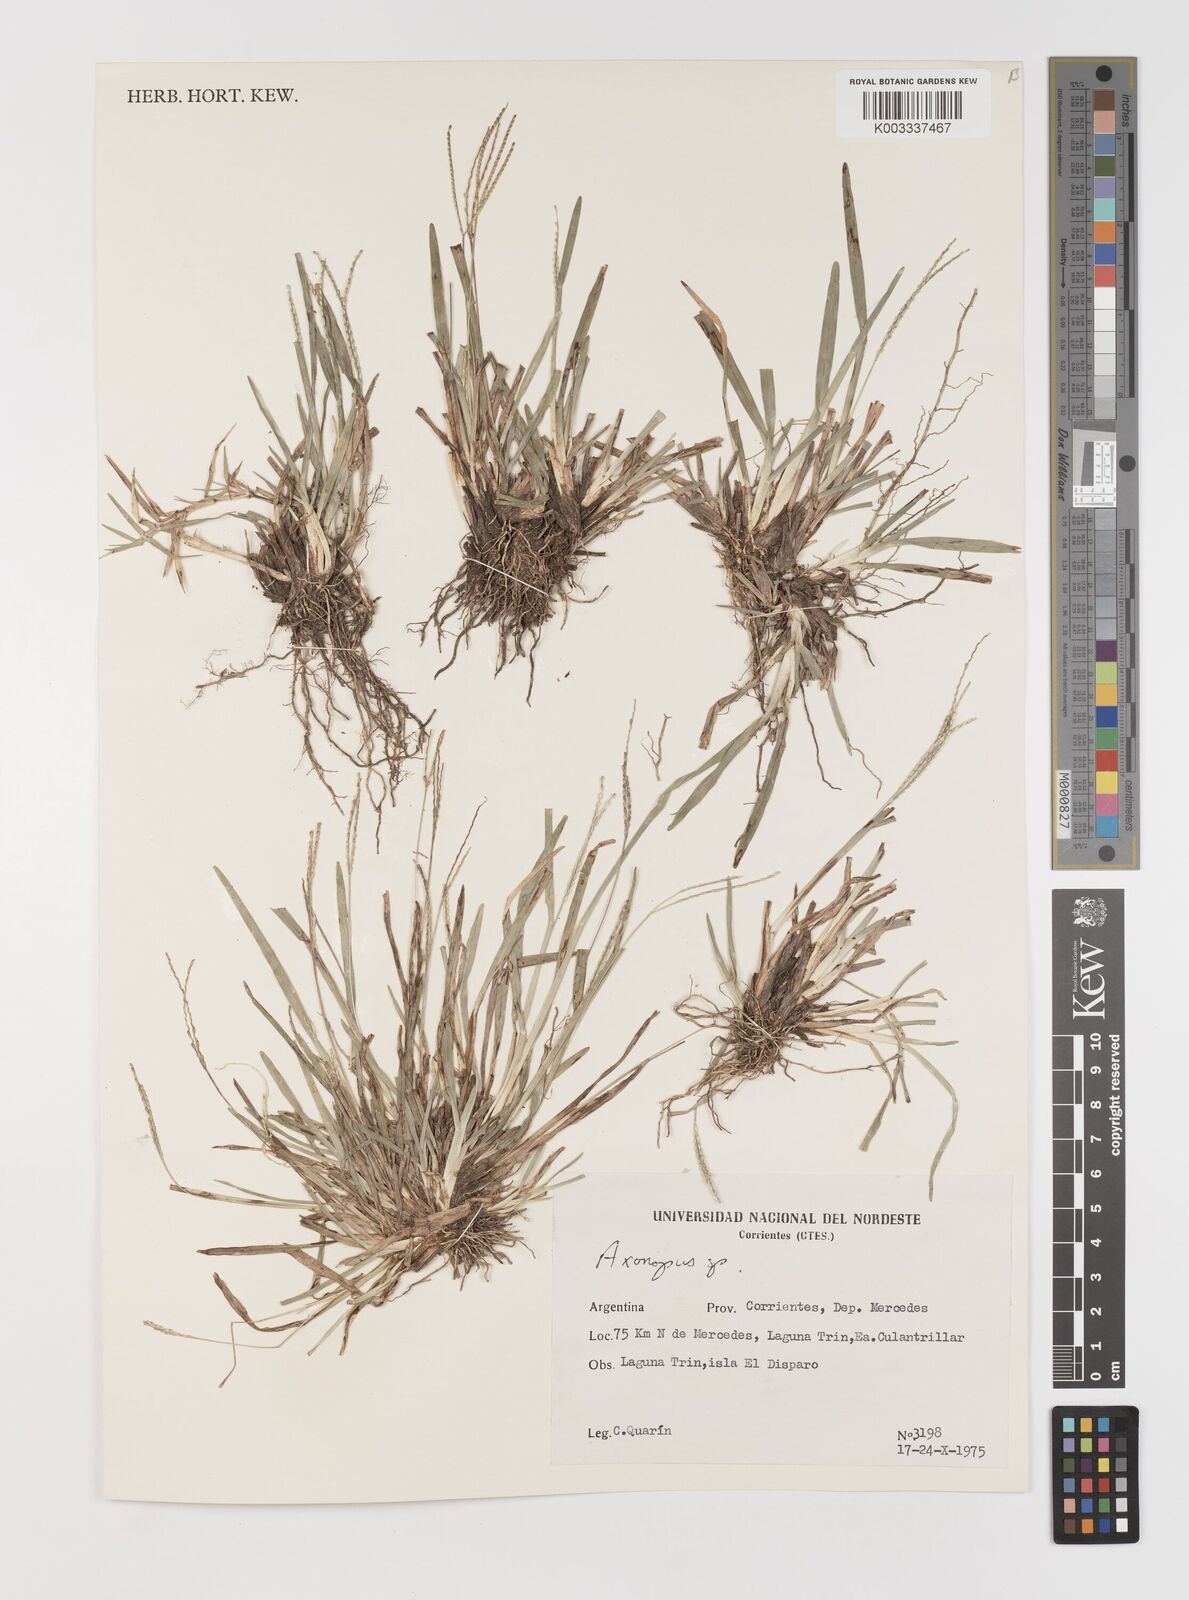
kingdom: Plantae
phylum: Tracheophyta
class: Liliopsida
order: Poales
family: Poaceae
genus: Axonopus
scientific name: Axonopus
